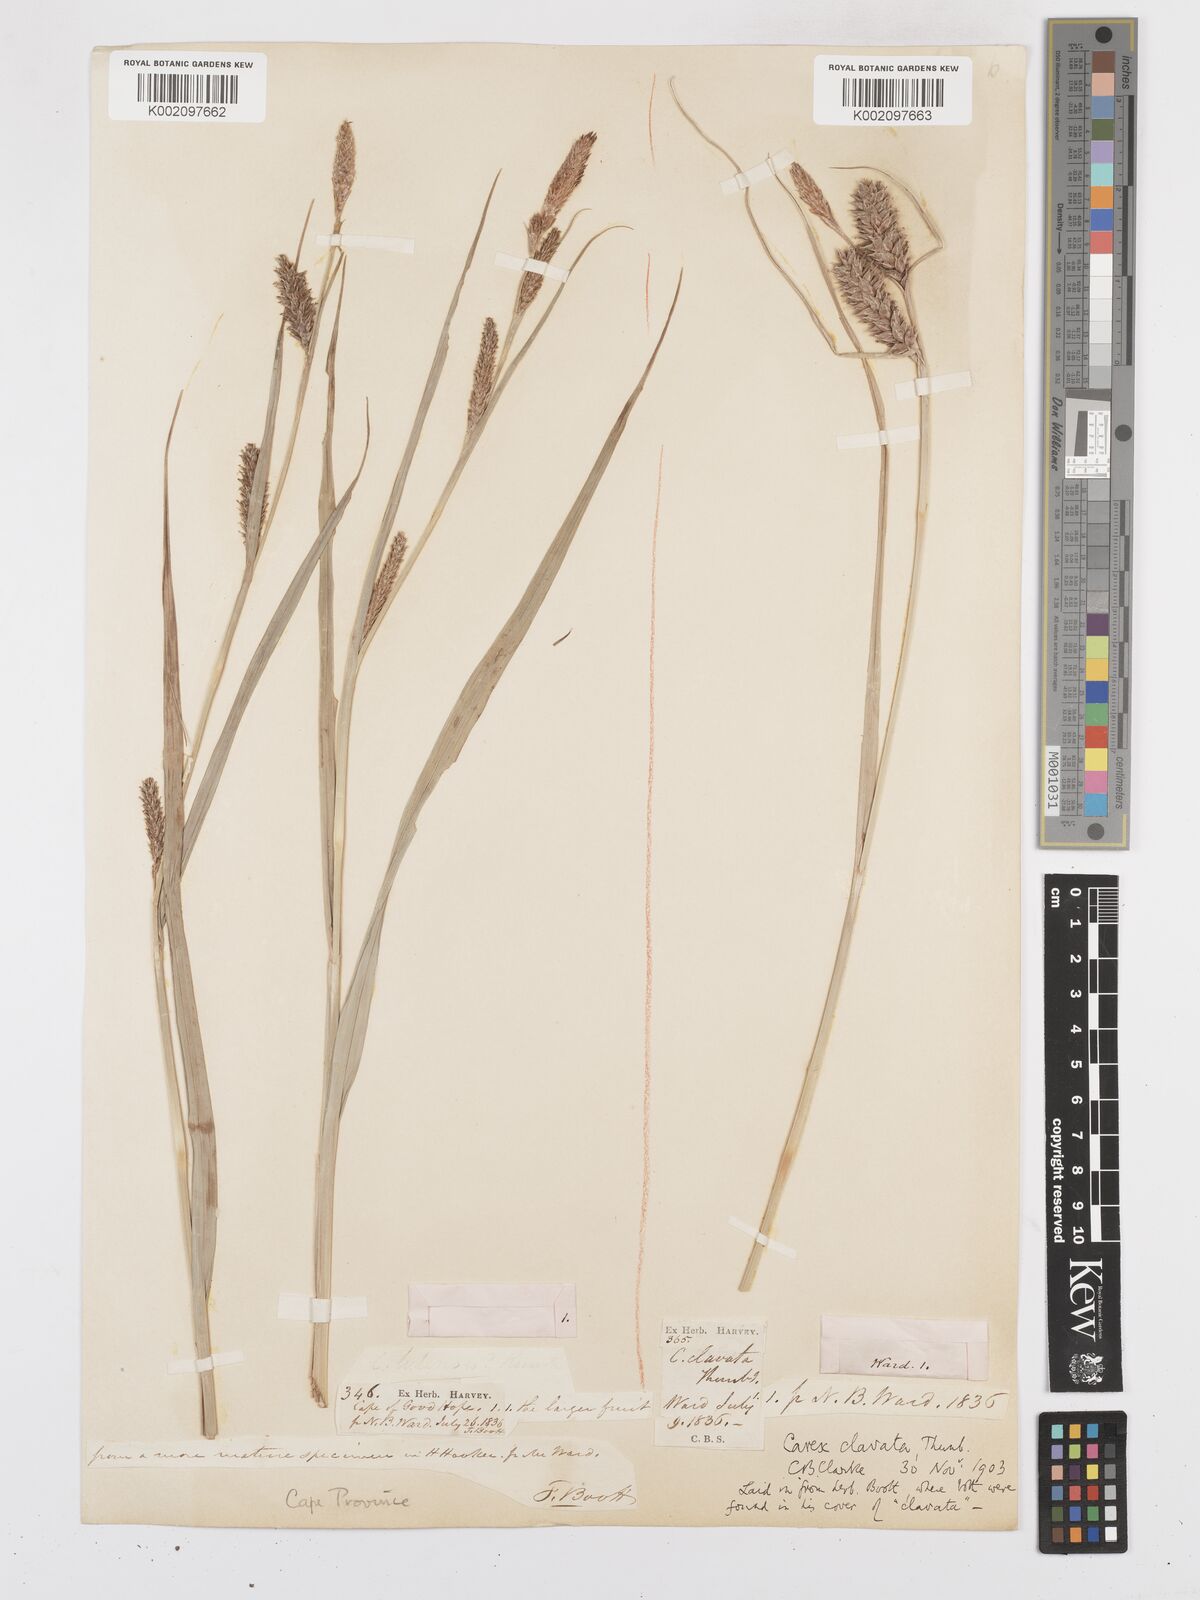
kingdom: Plantae
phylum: Tracheophyta
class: Liliopsida
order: Poales
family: Cyperaceae
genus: Carex
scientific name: Carex clavata
